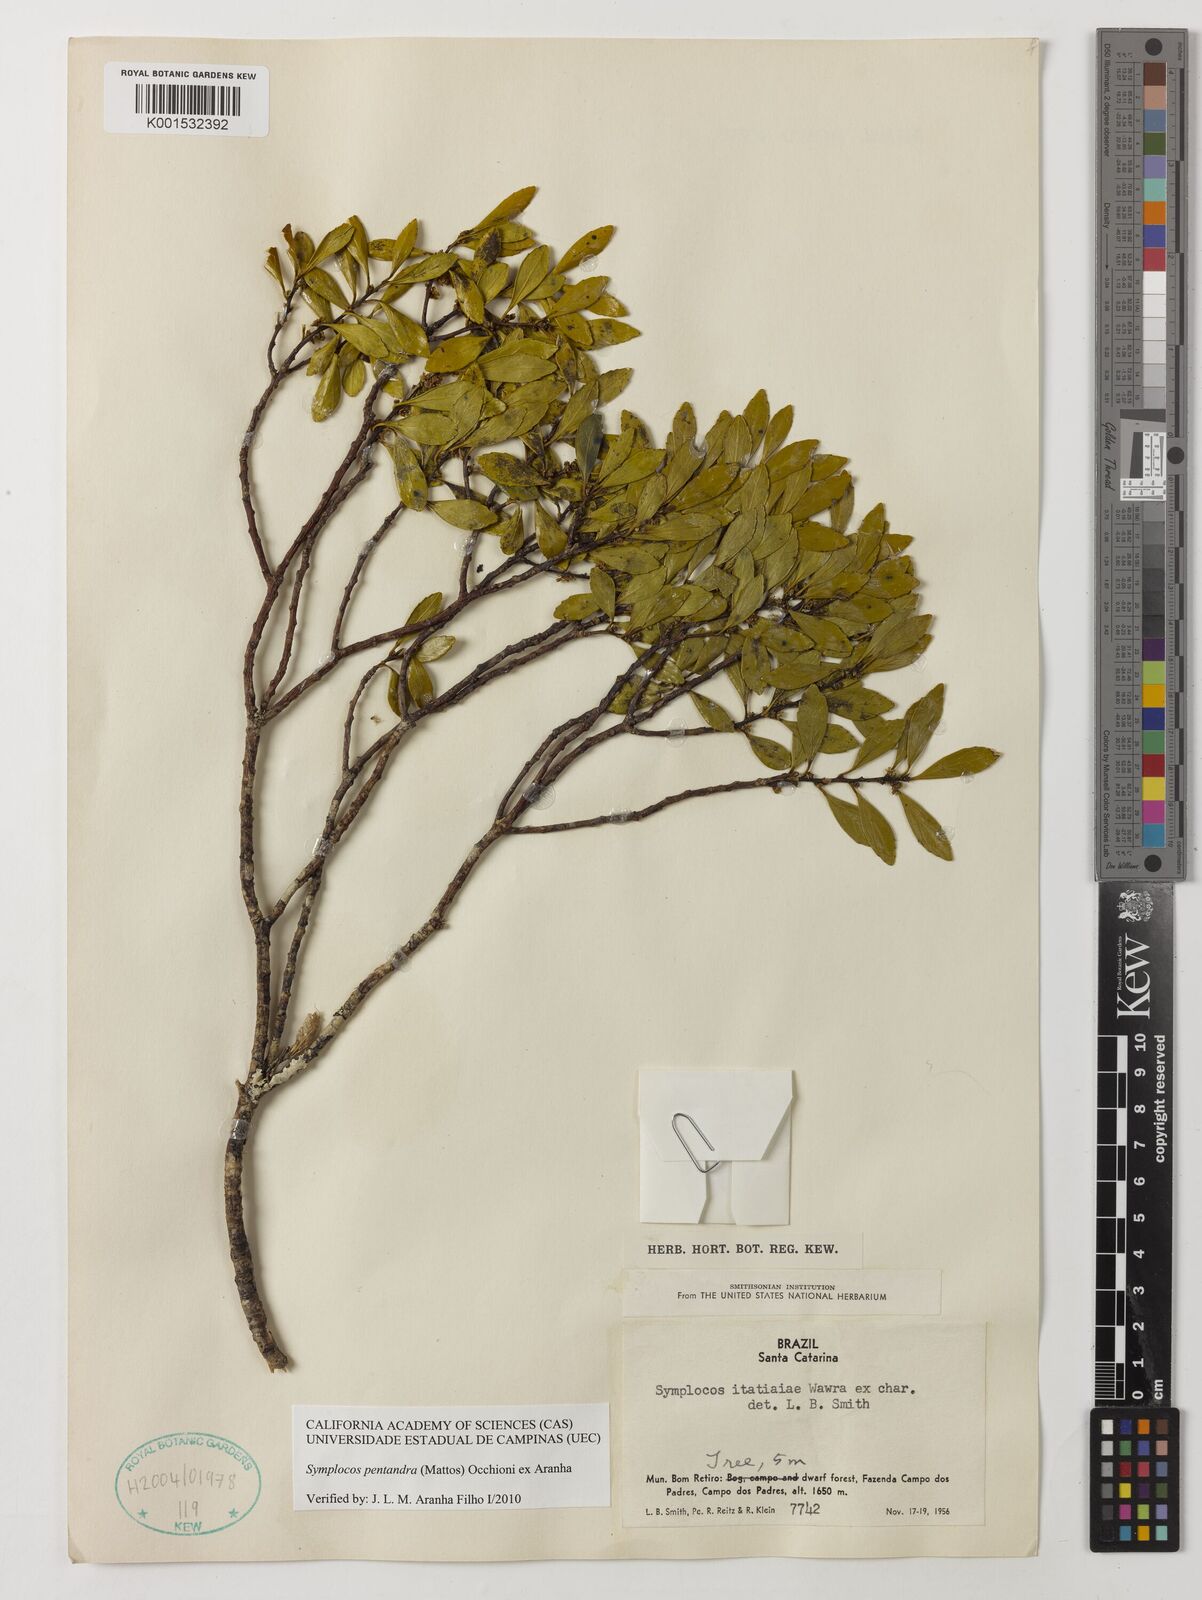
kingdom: Plantae
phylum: Tracheophyta
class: Magnoliopsida
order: Ericales
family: Symplocaceae
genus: Symplocos
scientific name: Symplocos pentandra
